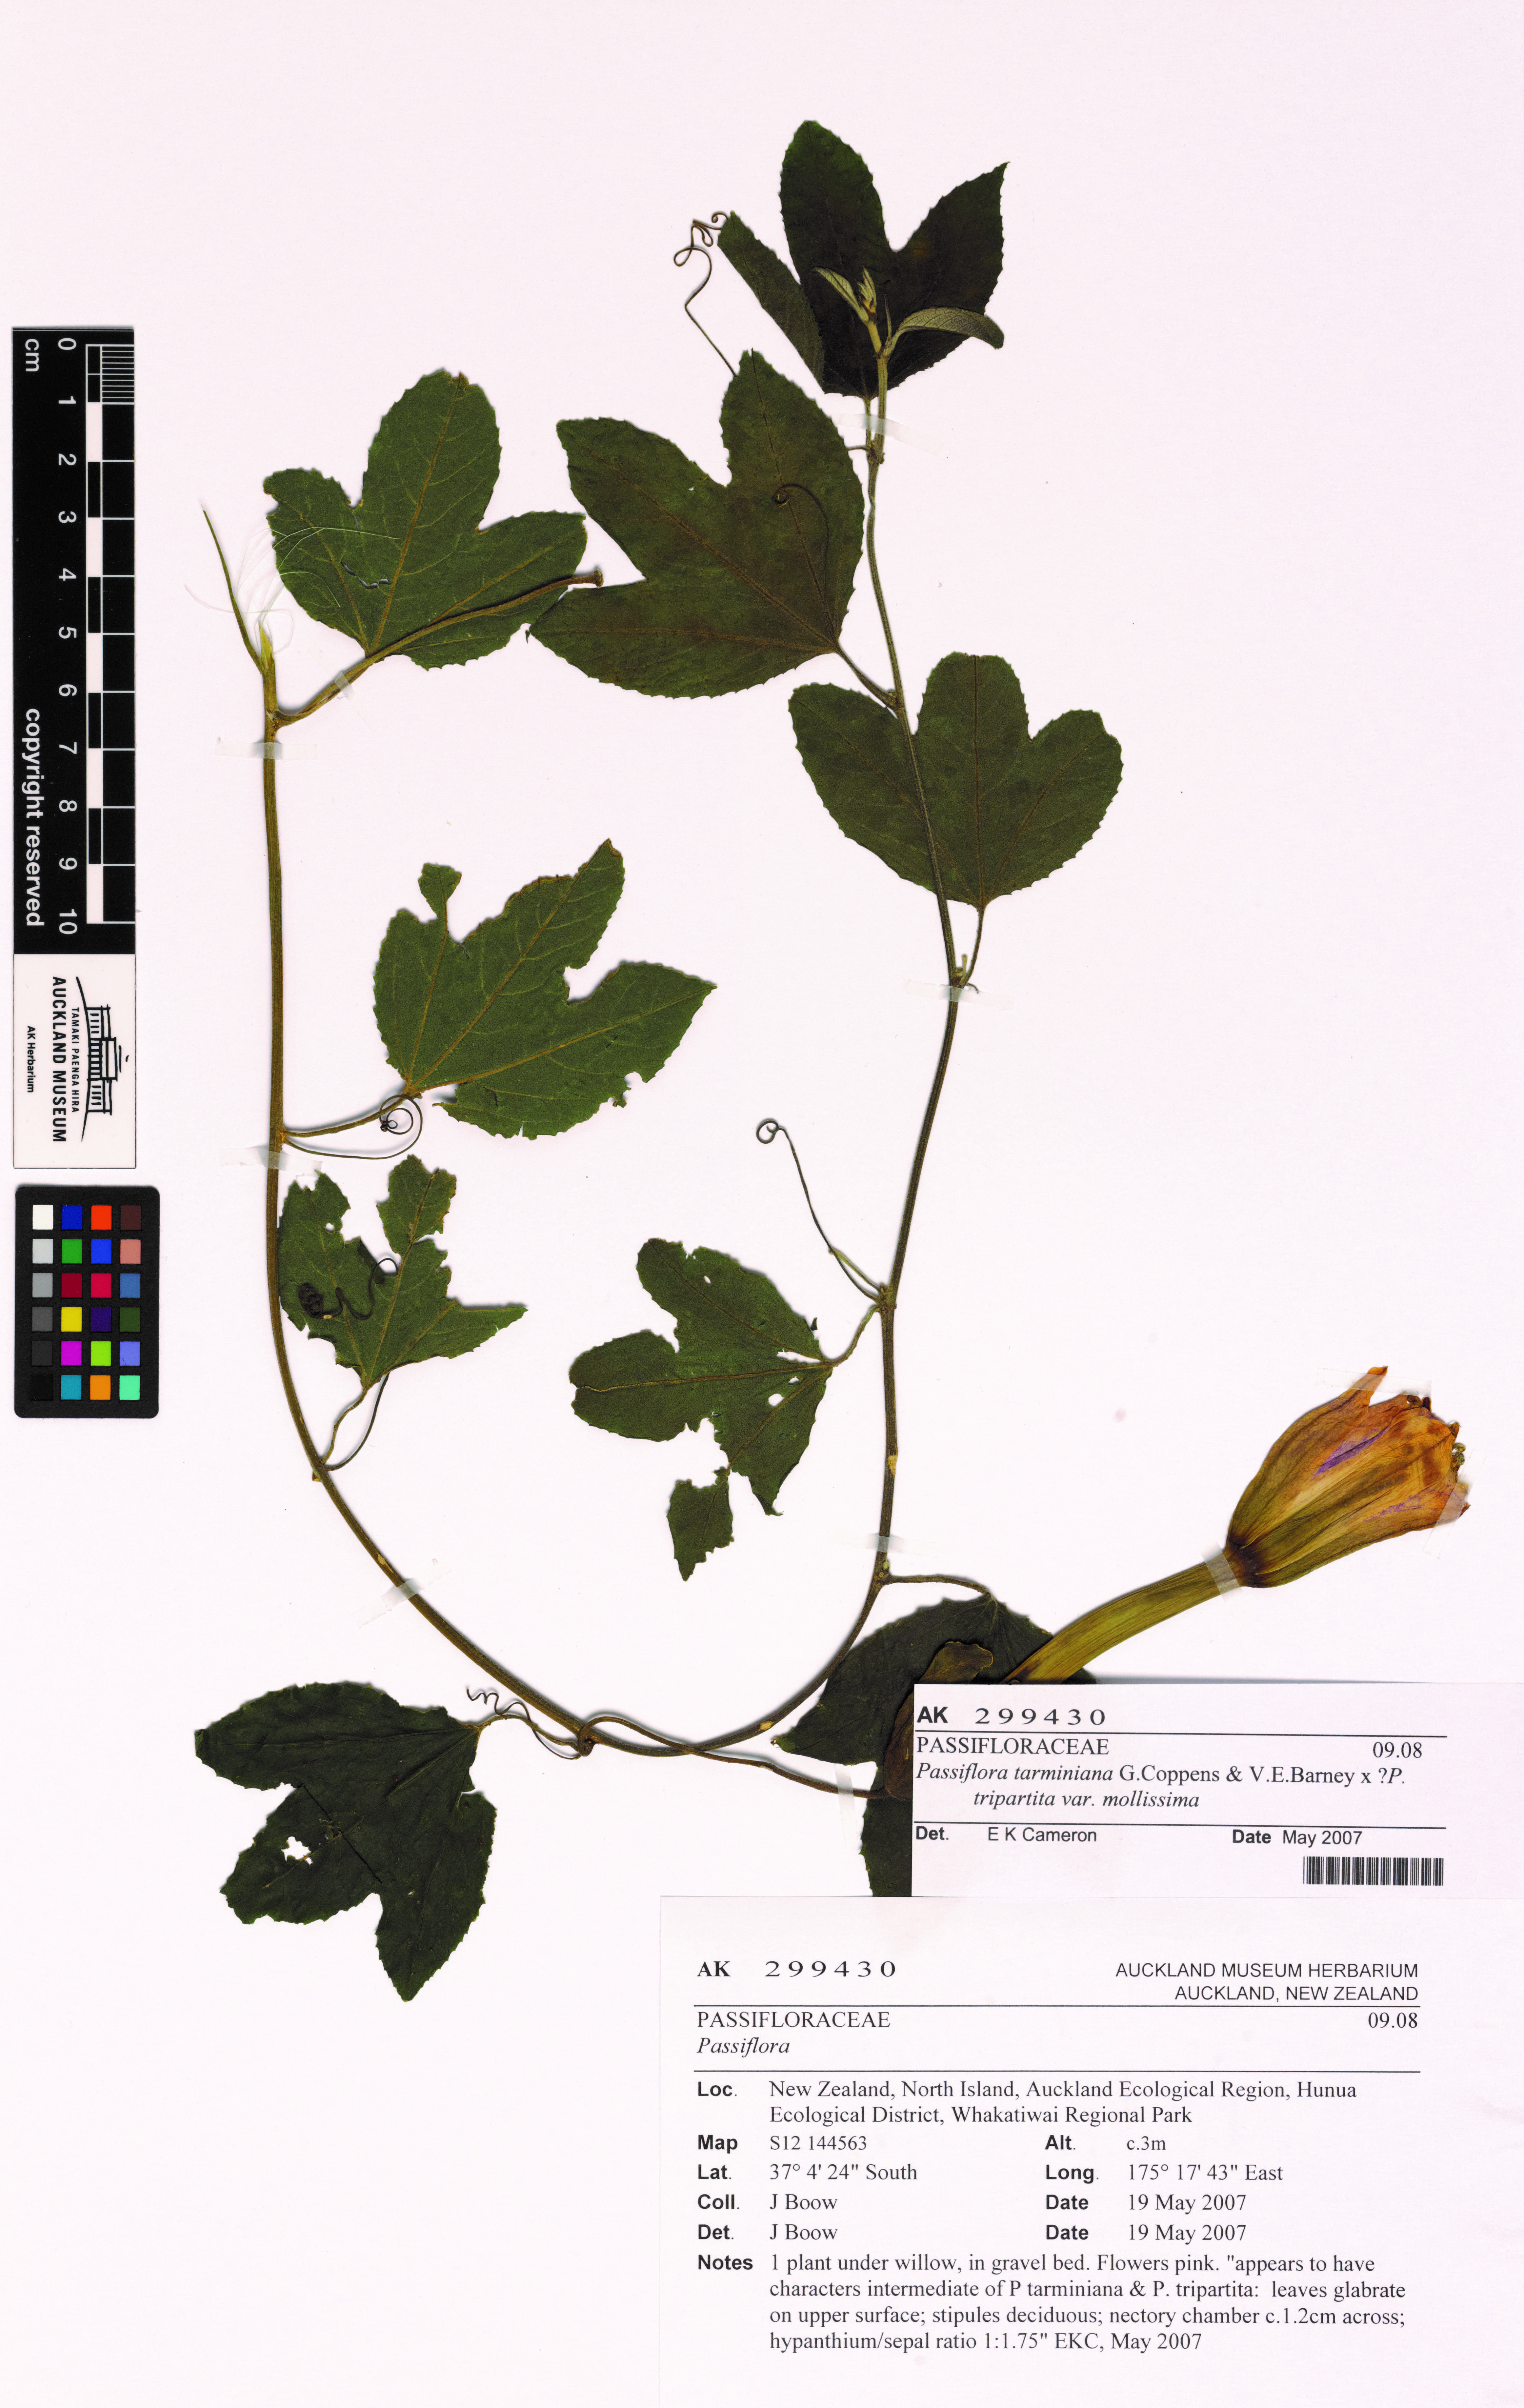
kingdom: Plantae
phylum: Tracheophyta
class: Magnoliopsida
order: Malpighiales
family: Passifloraceae
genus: Passiflora
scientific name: Passiflora
